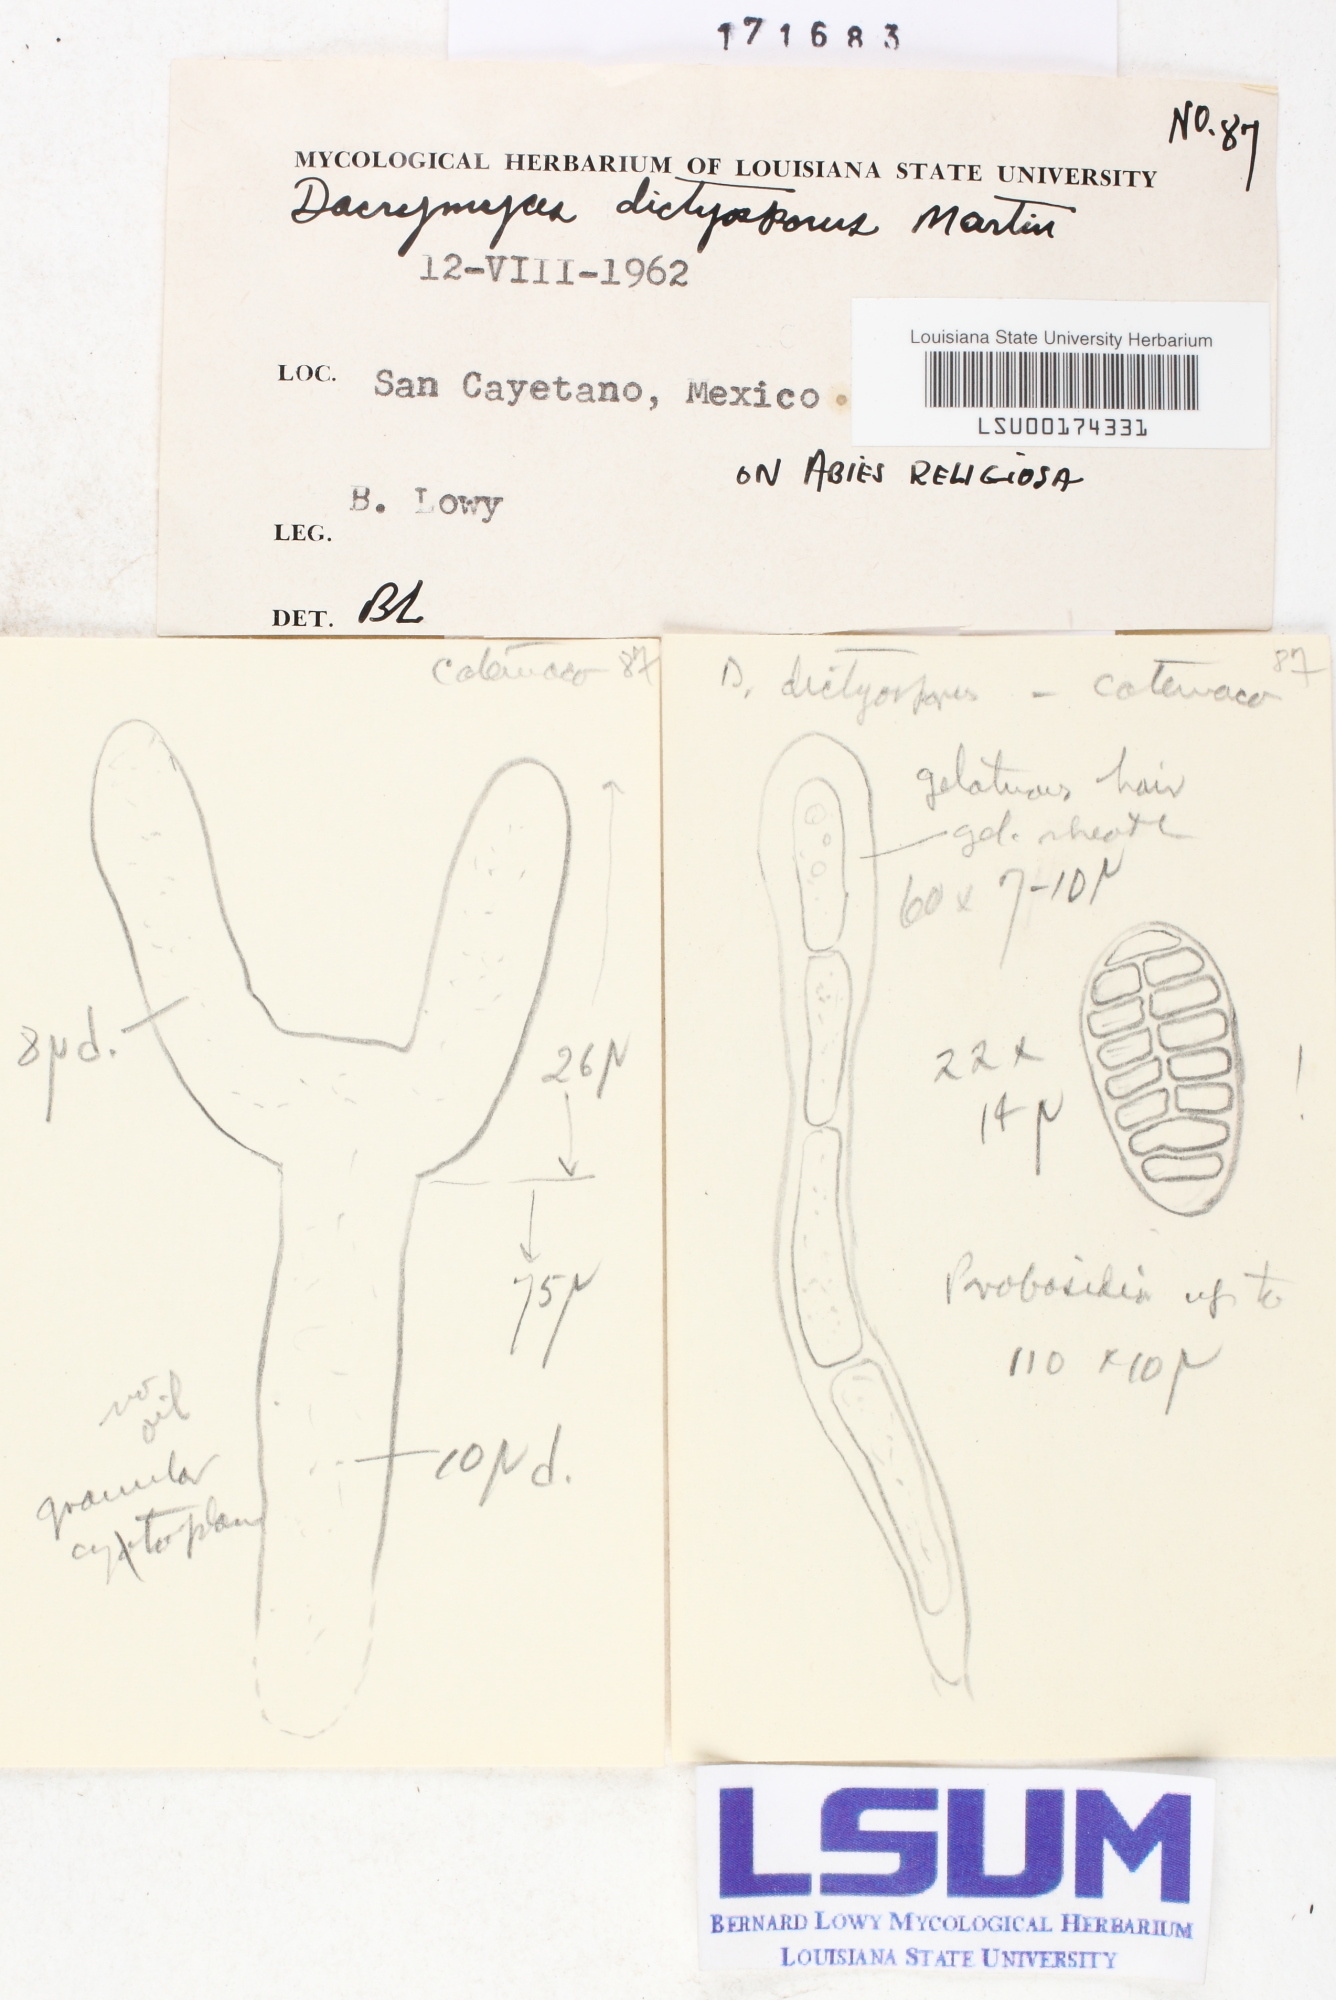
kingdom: Fungi
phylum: Basidiomycota
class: Dacrymycetes
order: Dacrymycetales
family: Dacrymycetaceae
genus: Dacrymyces
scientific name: Dacrymyces dictyosporus
